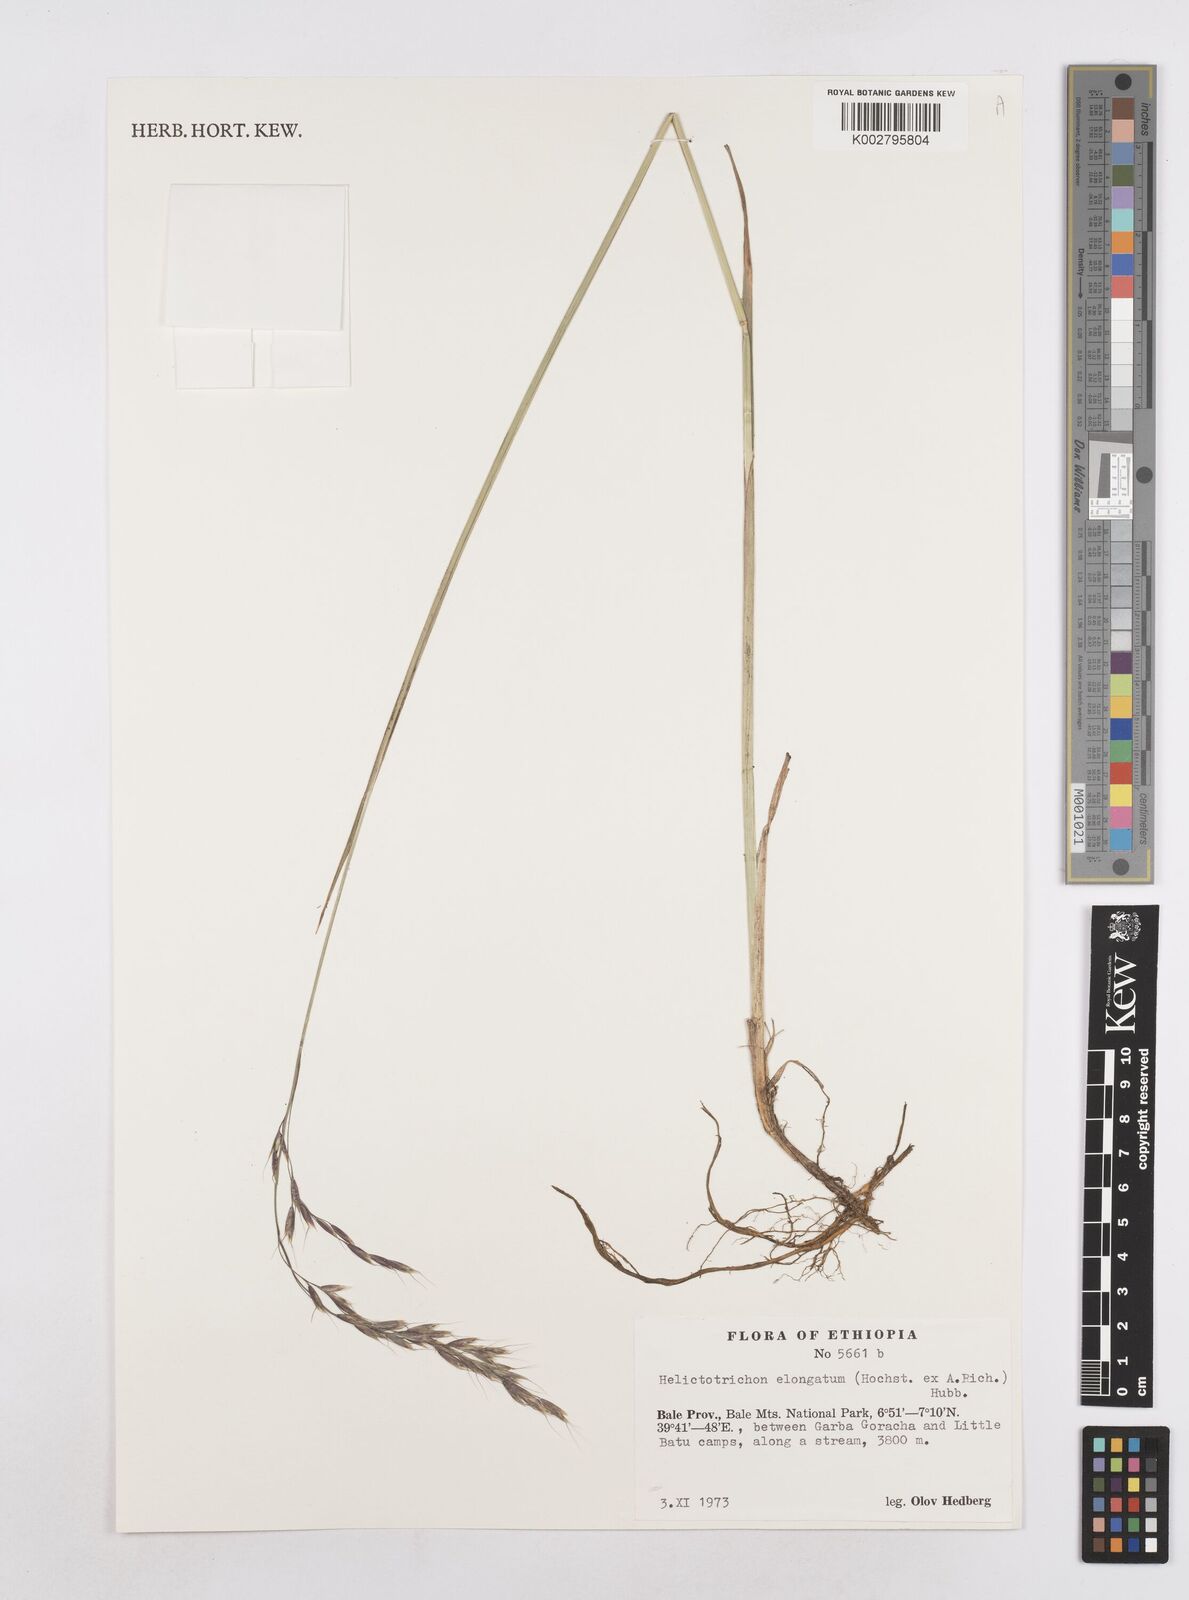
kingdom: Plantae
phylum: Tracheophyta
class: Liliopsida
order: Poales
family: Poaceae
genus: Trisetopsis
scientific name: Trisetopsis elongata
